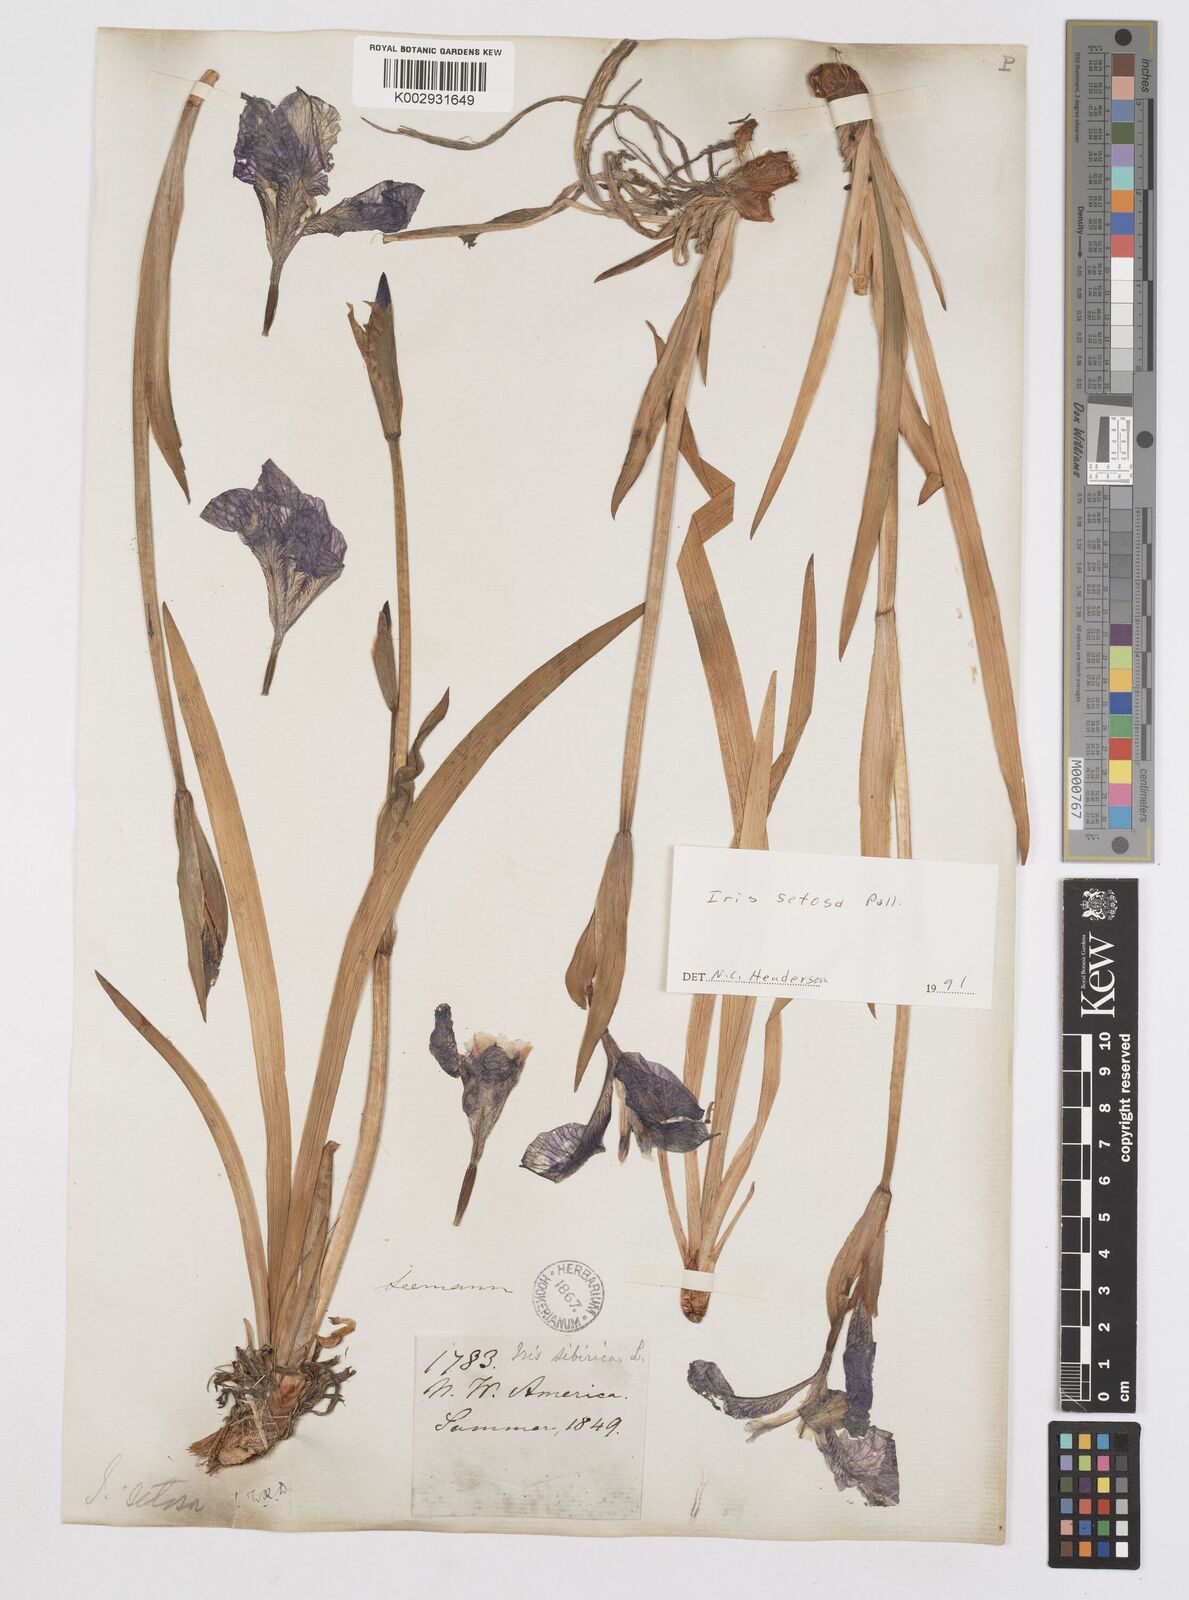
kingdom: Plantae
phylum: Tracheophyta
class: Liliopsida
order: Asparagales
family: Iridaceae
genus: Iris
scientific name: Iris setosa
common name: Arctic blue flag
